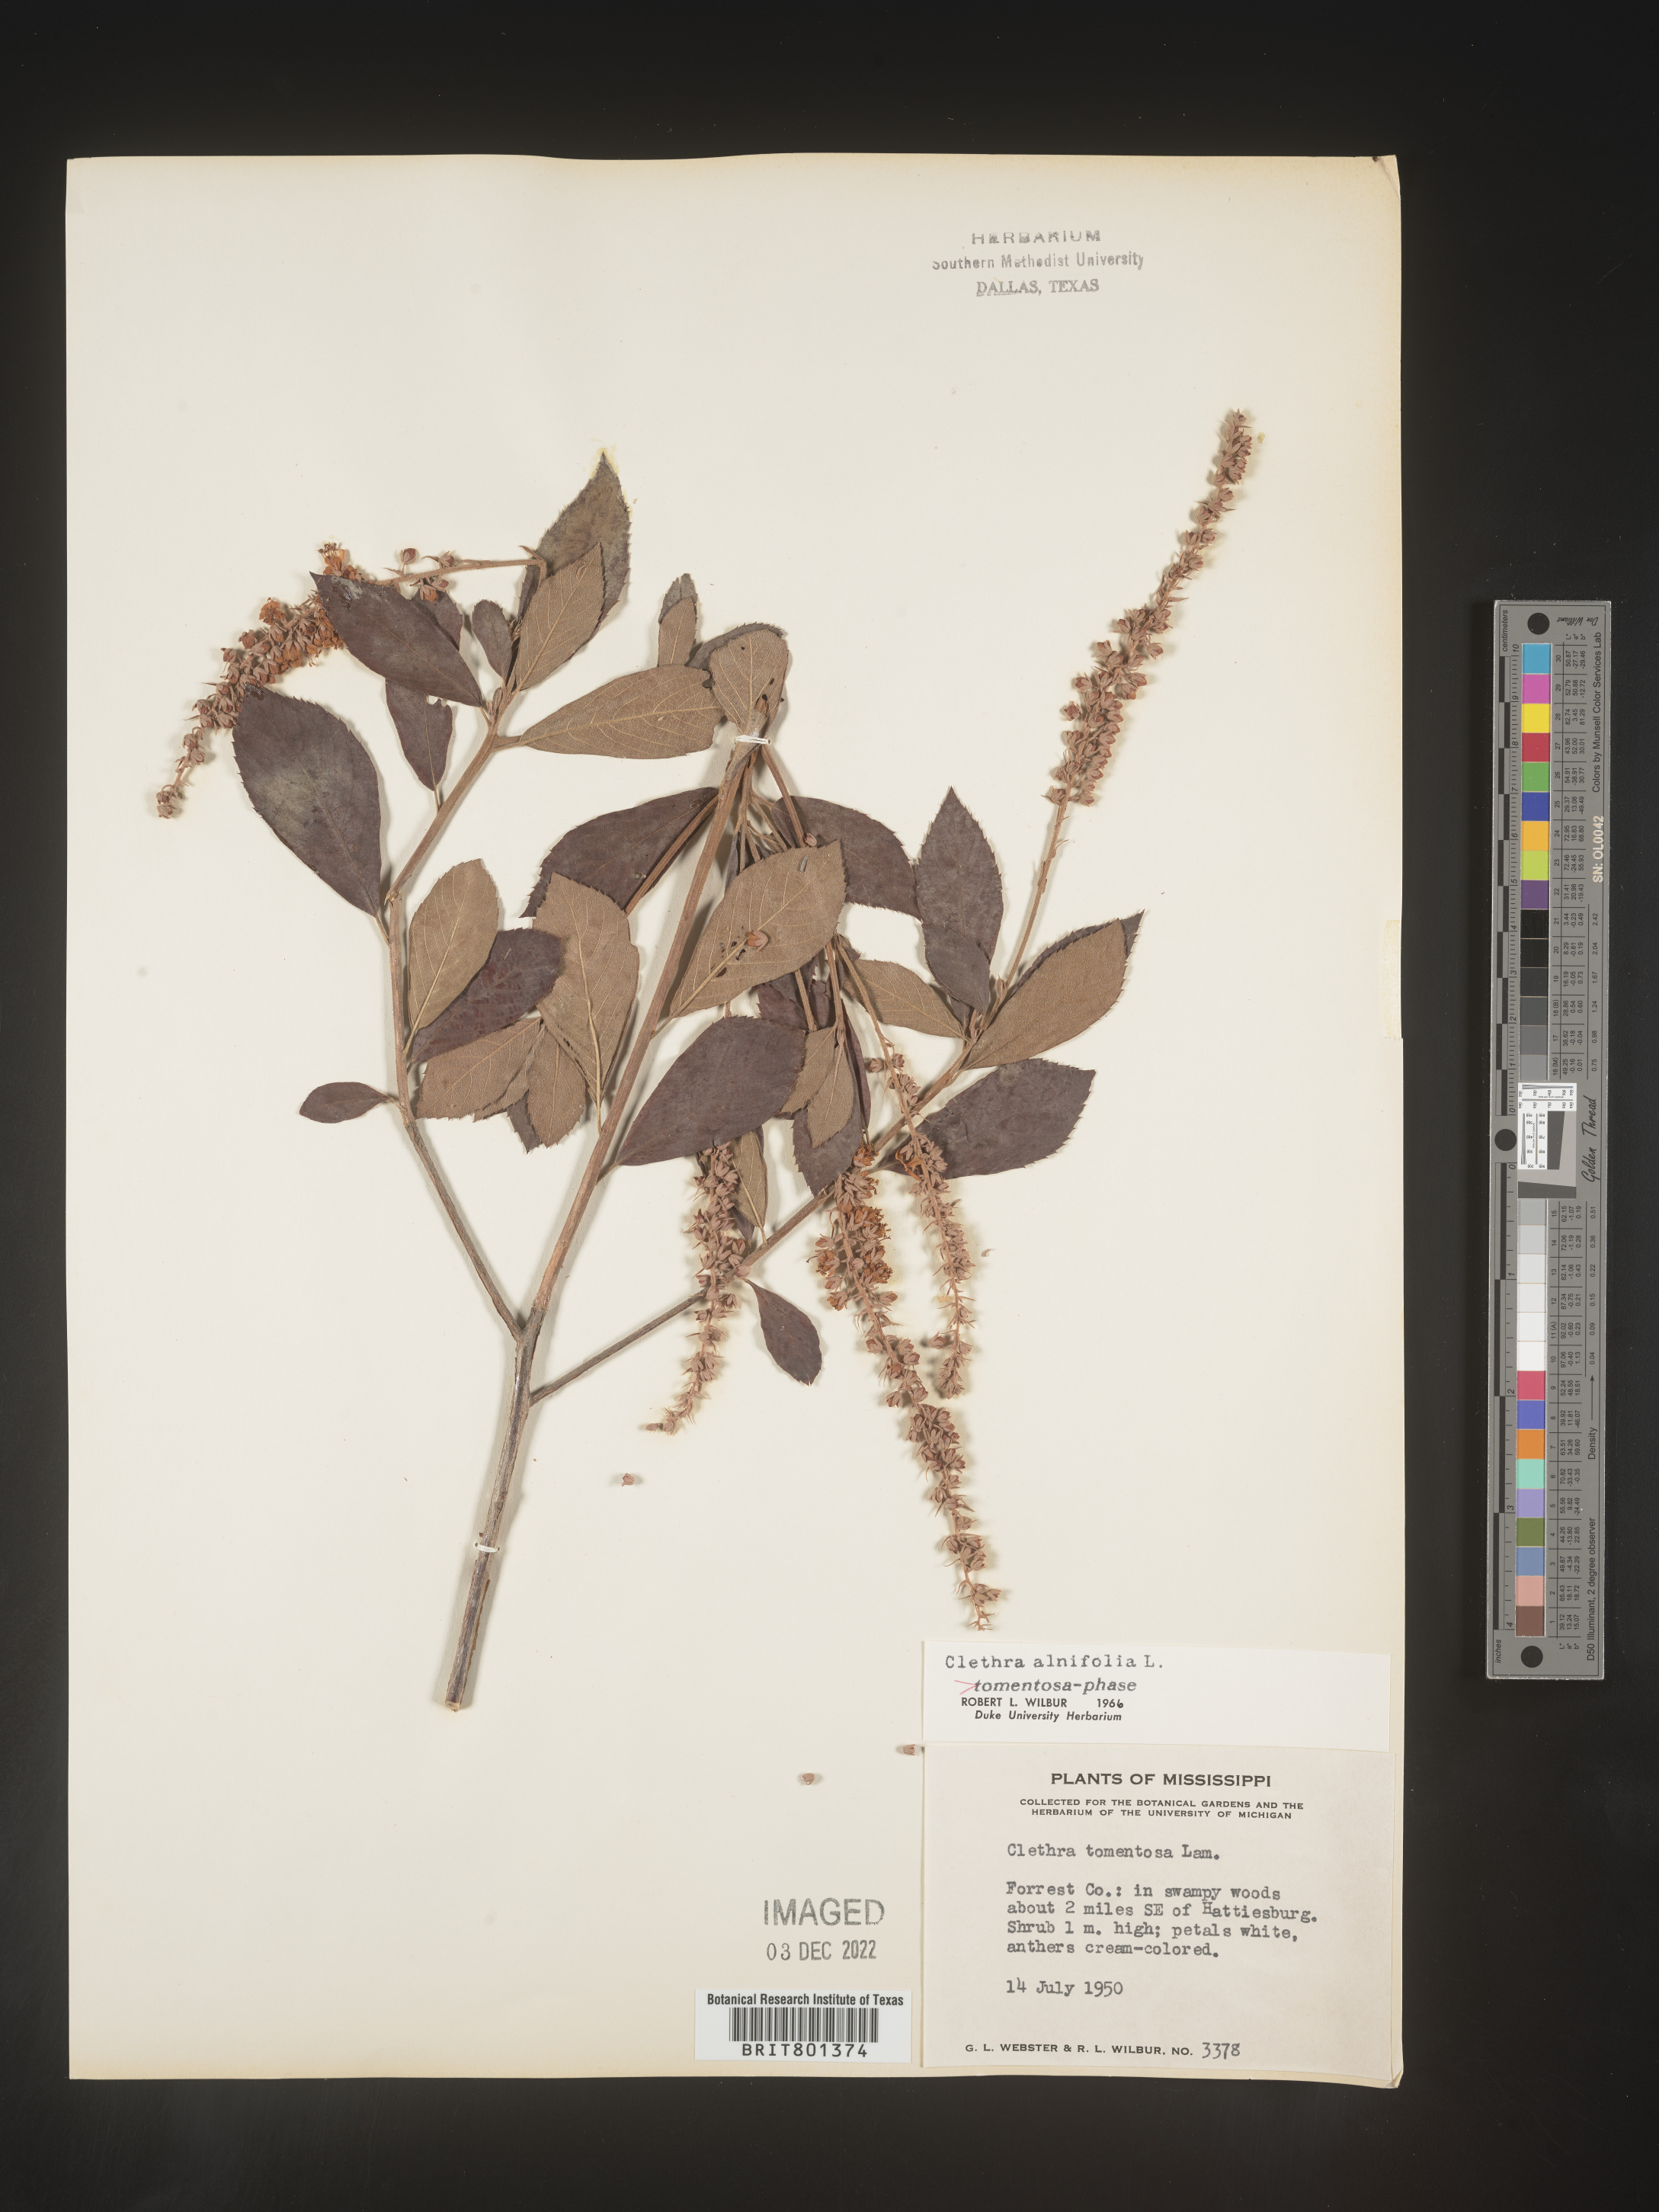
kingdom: Plantae
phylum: Tracheophyta
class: Magnoliopsida
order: Ericales
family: Clethraceae
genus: Clethra
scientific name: Clethra alnifolia
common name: Sweet pepperbush
